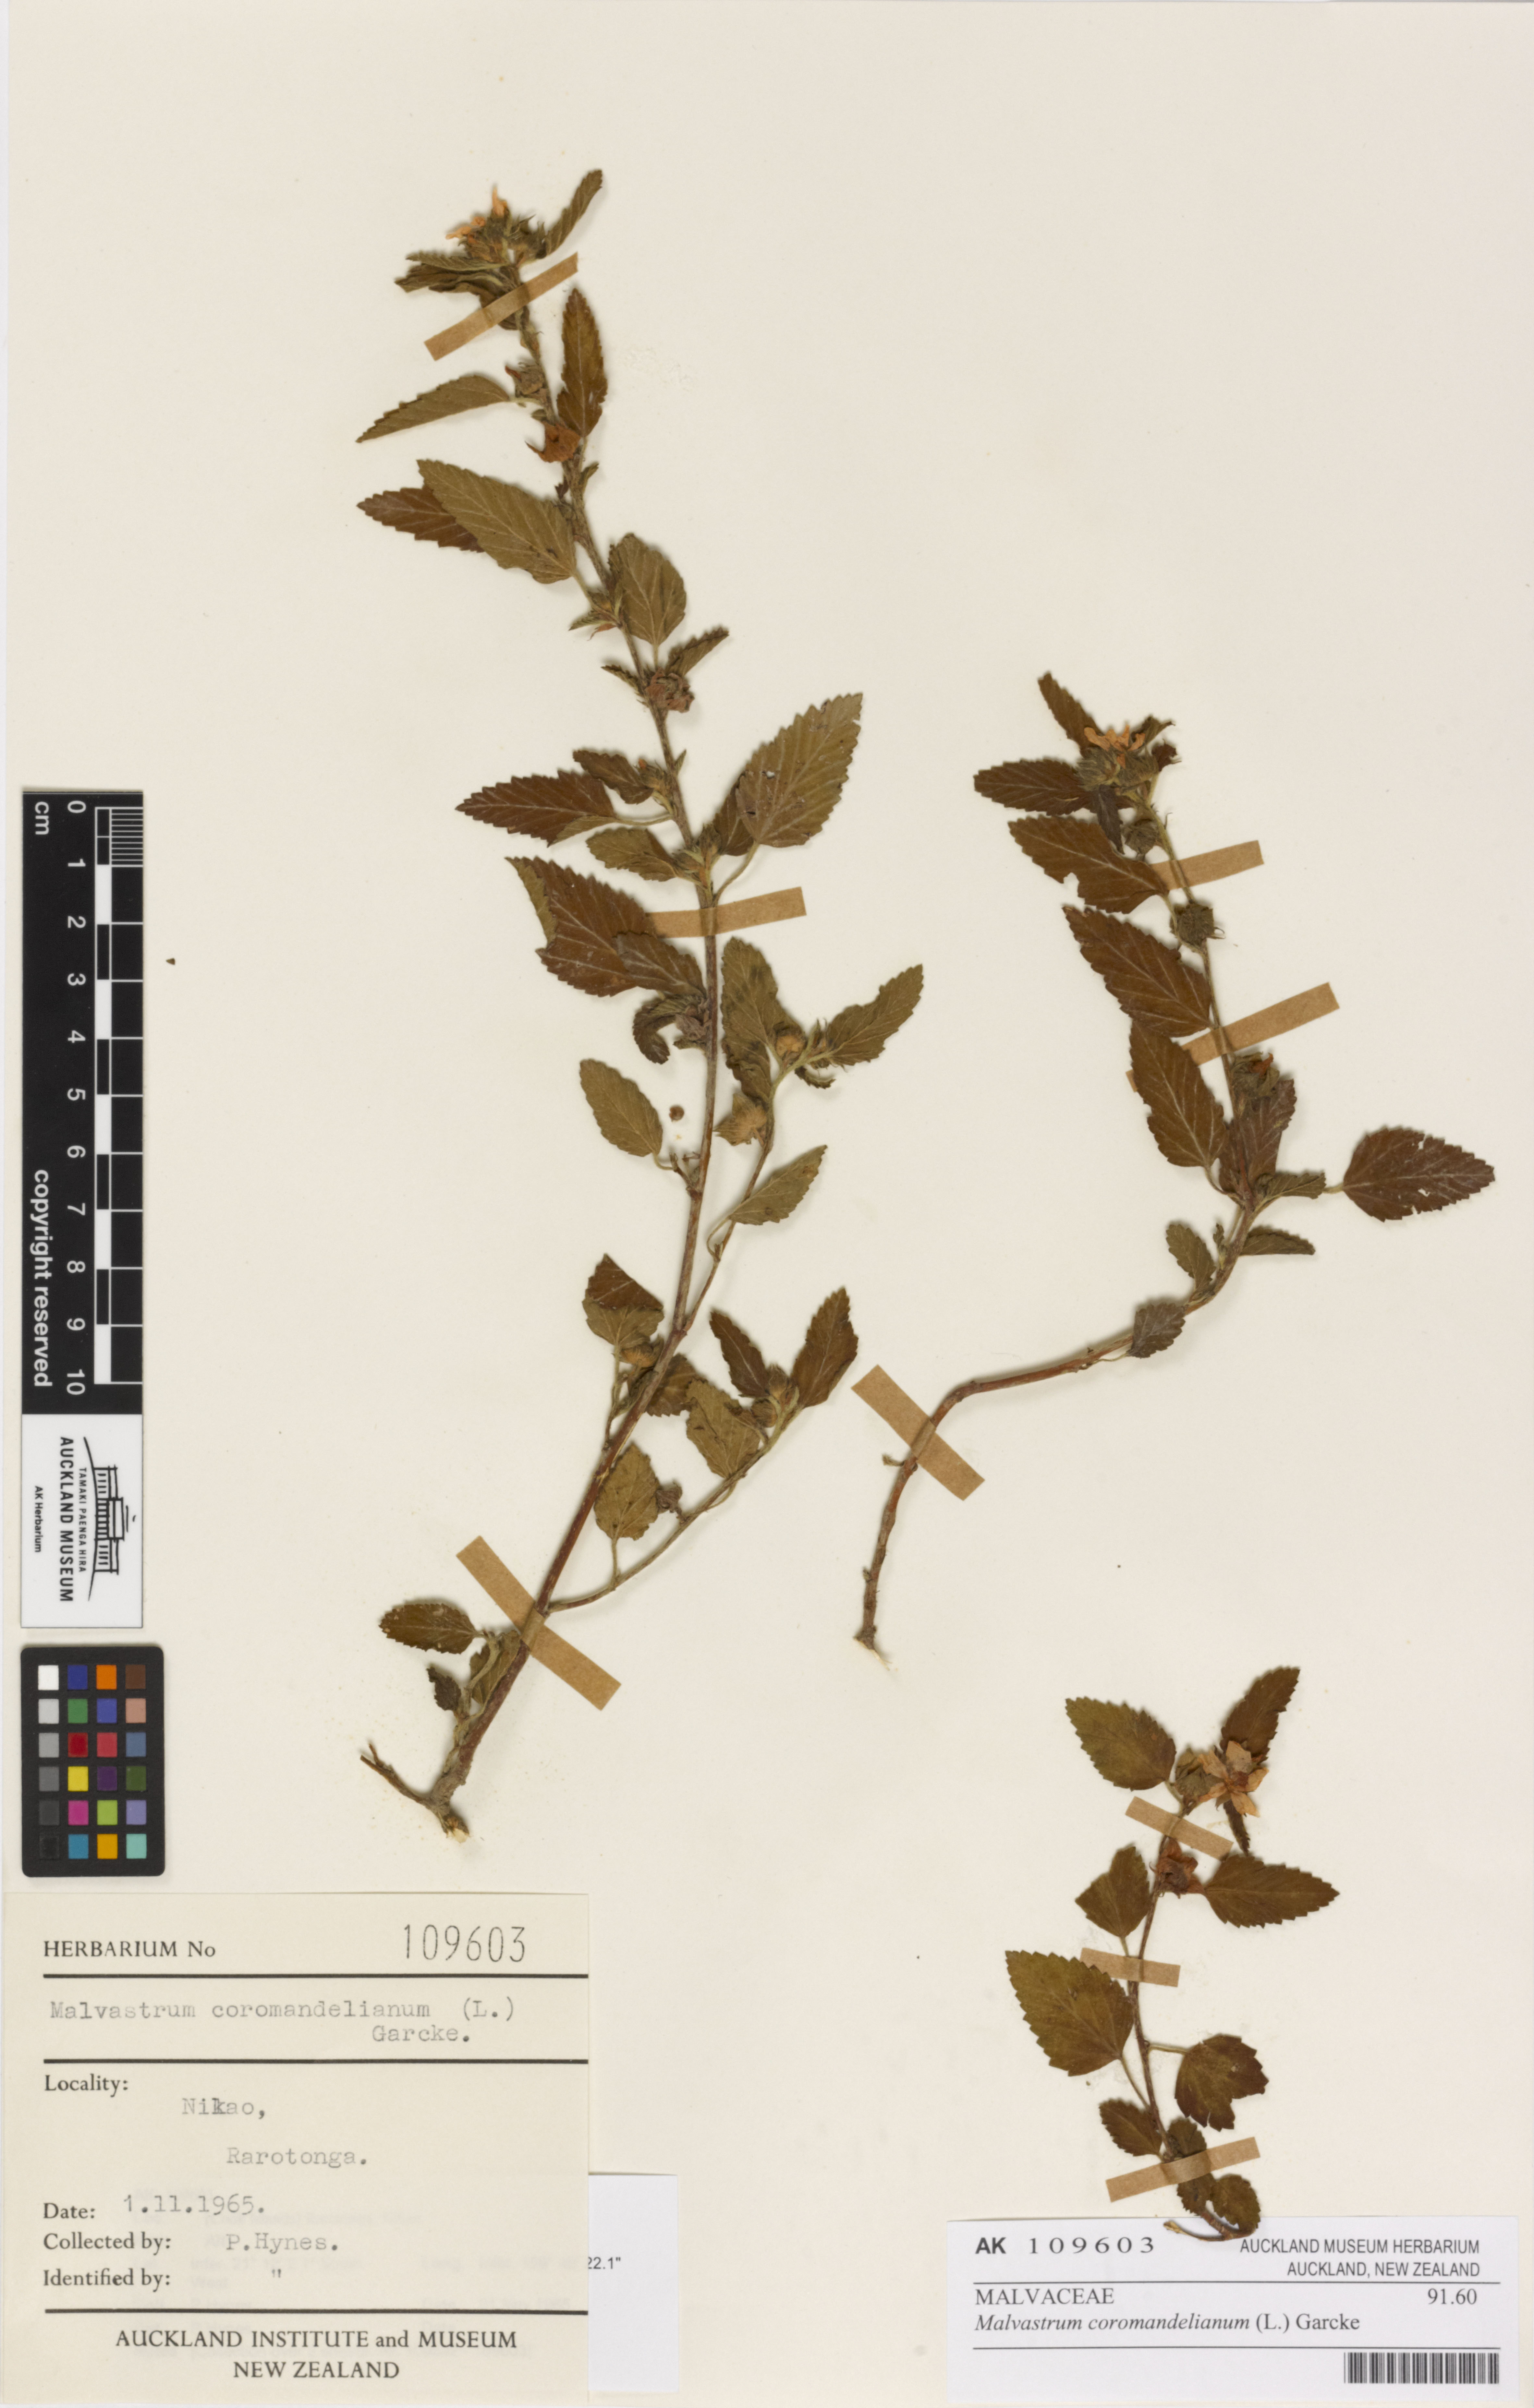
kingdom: Plantae
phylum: Tracheophyta
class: Magnoliopsida
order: Malvales
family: Malvaceae
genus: Malvastrum
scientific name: Malvastrum coromandelianum
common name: Threelobe false mallow
